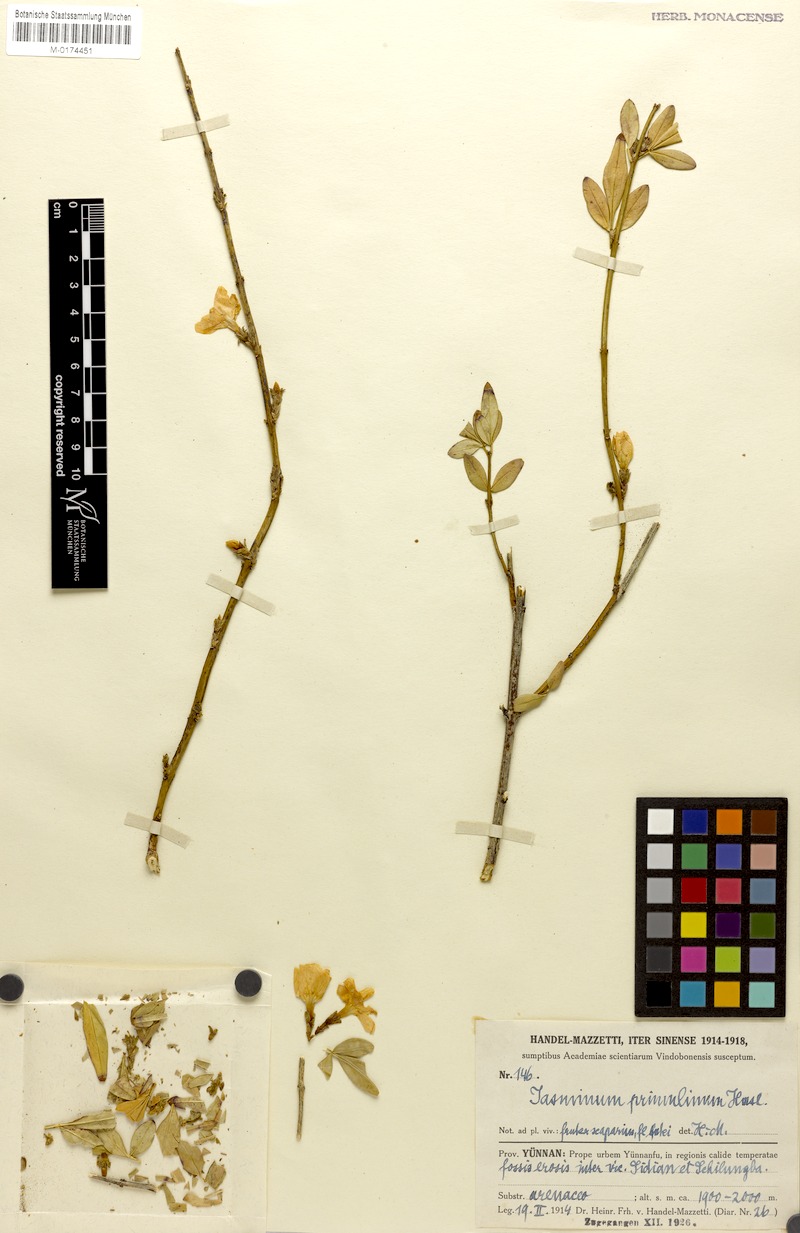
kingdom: Plantae
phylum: Tracheophyta
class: Magnoliopsida
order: Lamiales
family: Oleaceae
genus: Jasminum
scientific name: Jasminum mesnyi
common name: Japanese jasmine
